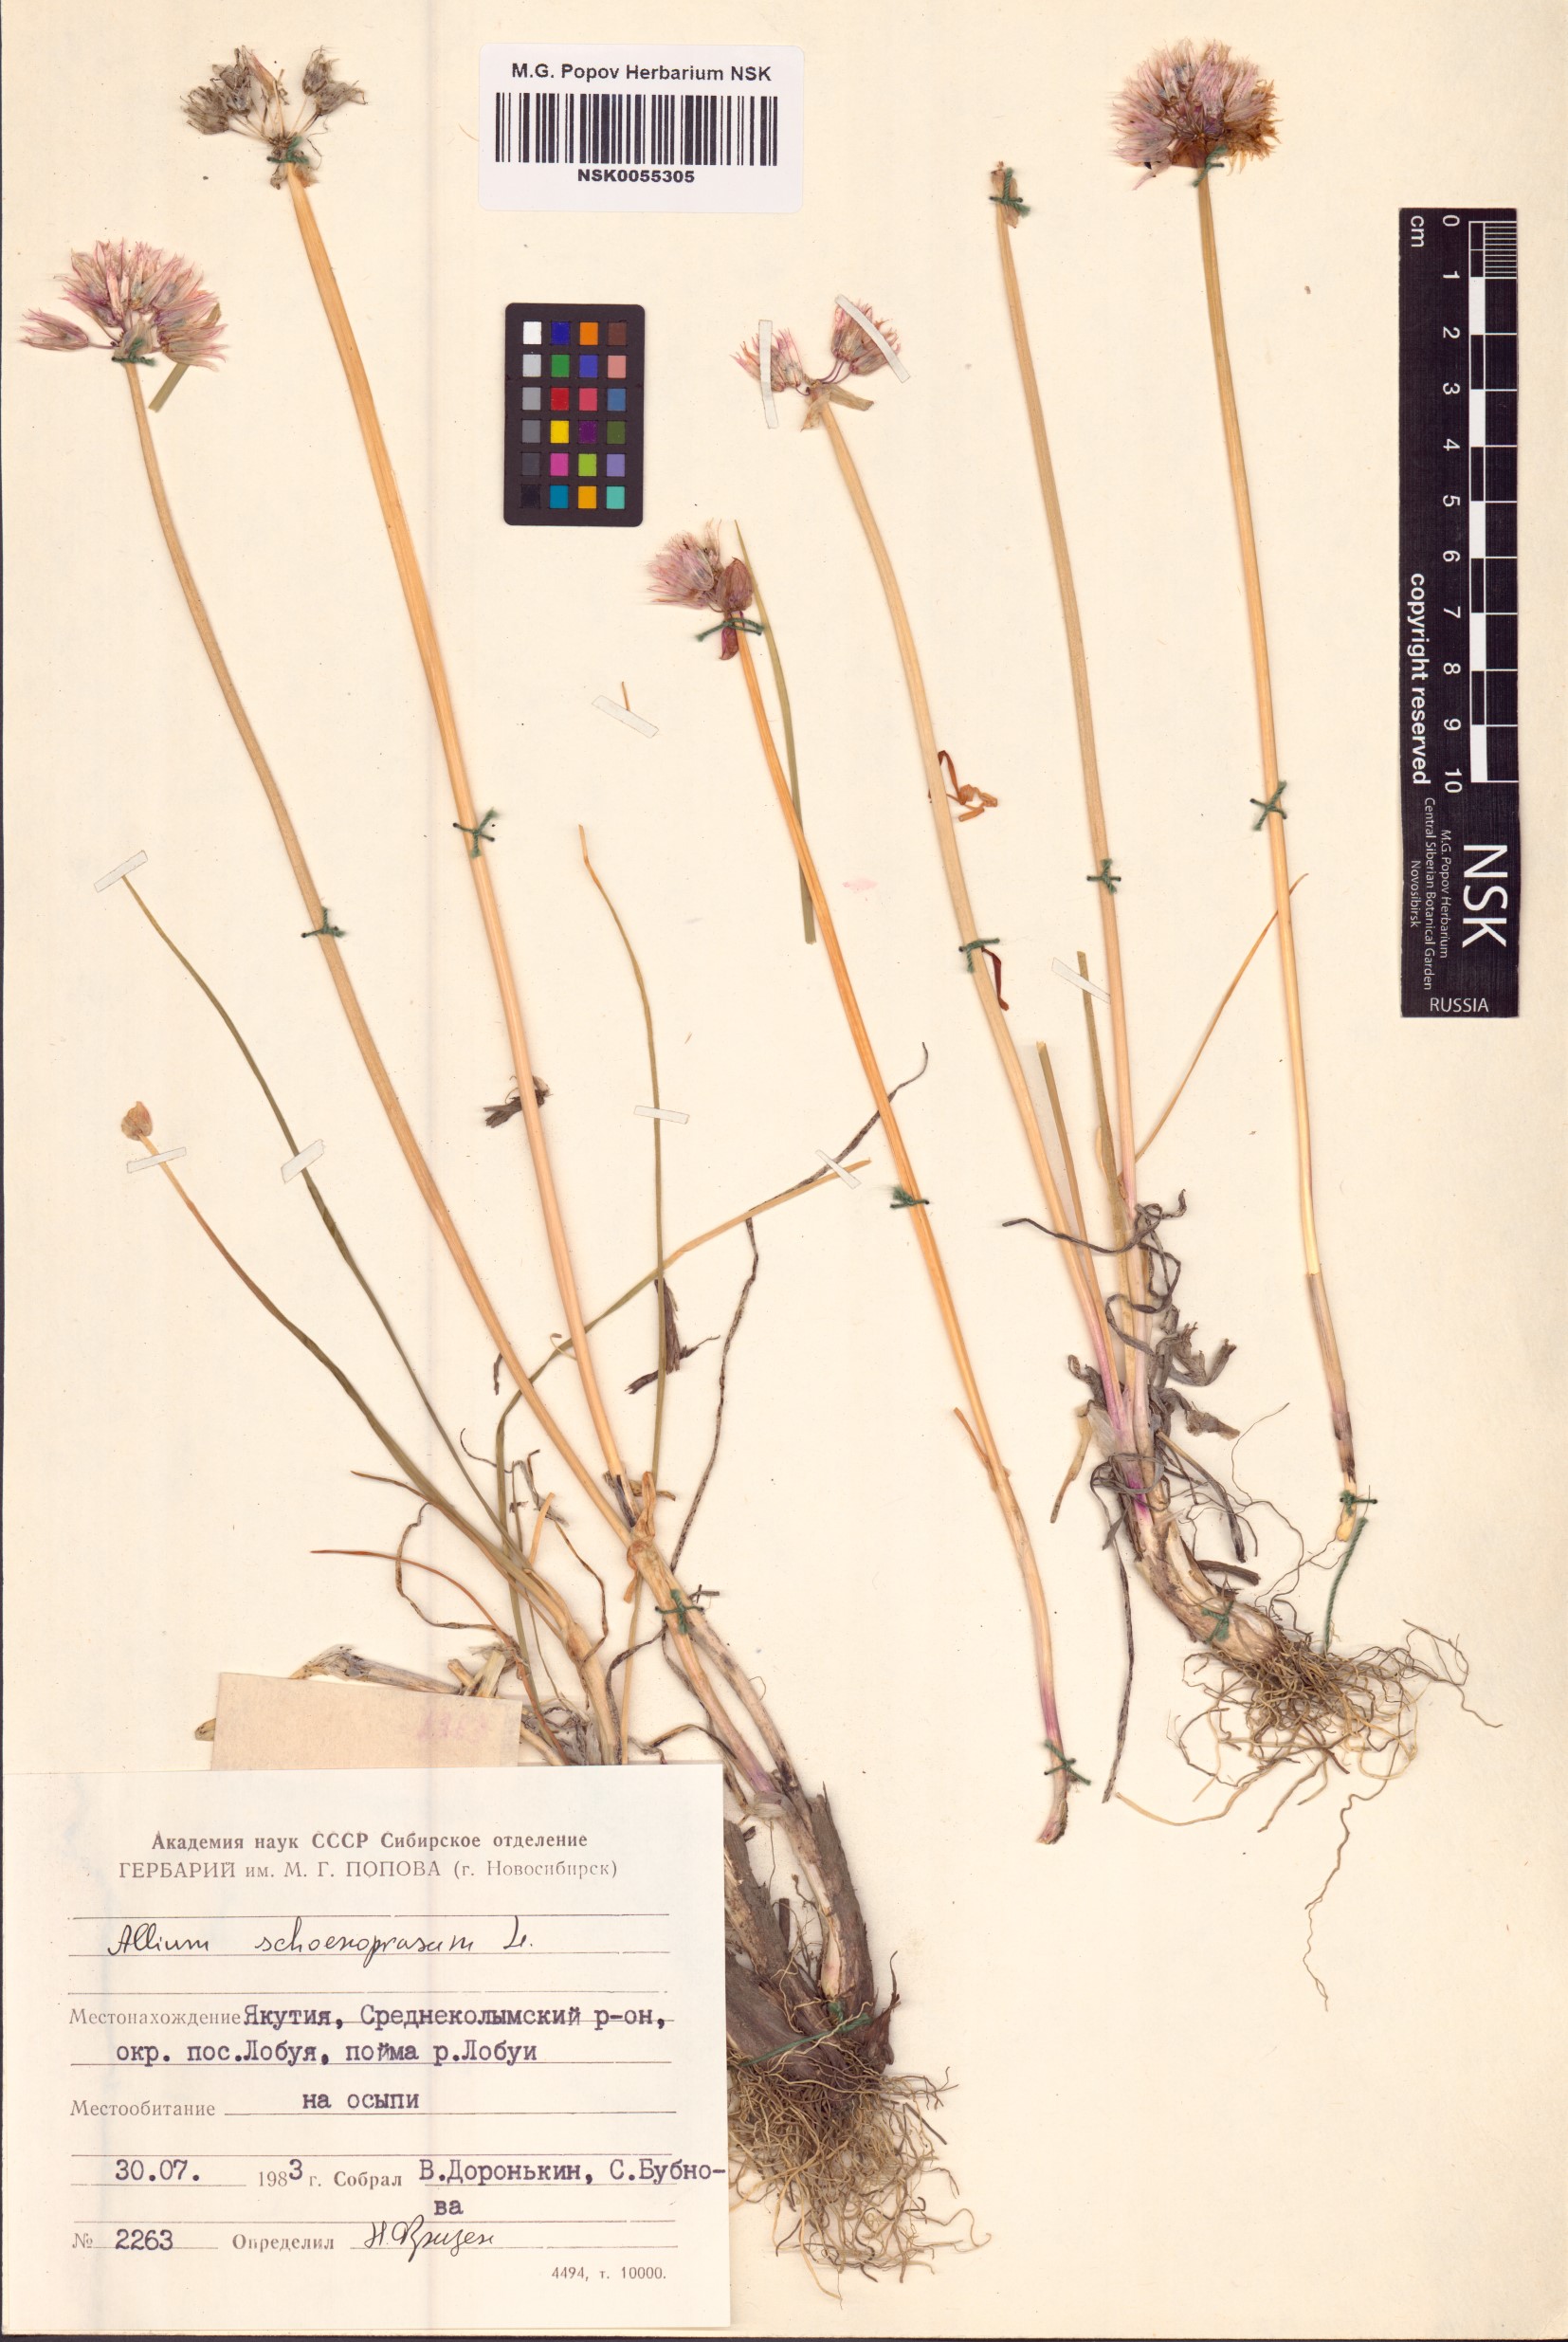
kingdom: Plantae
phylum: Tracheophyta
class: Liliopsida
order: Asparagales
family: Amaryllidaceae
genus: Allium
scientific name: Allium schoenoprasum
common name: Chives
